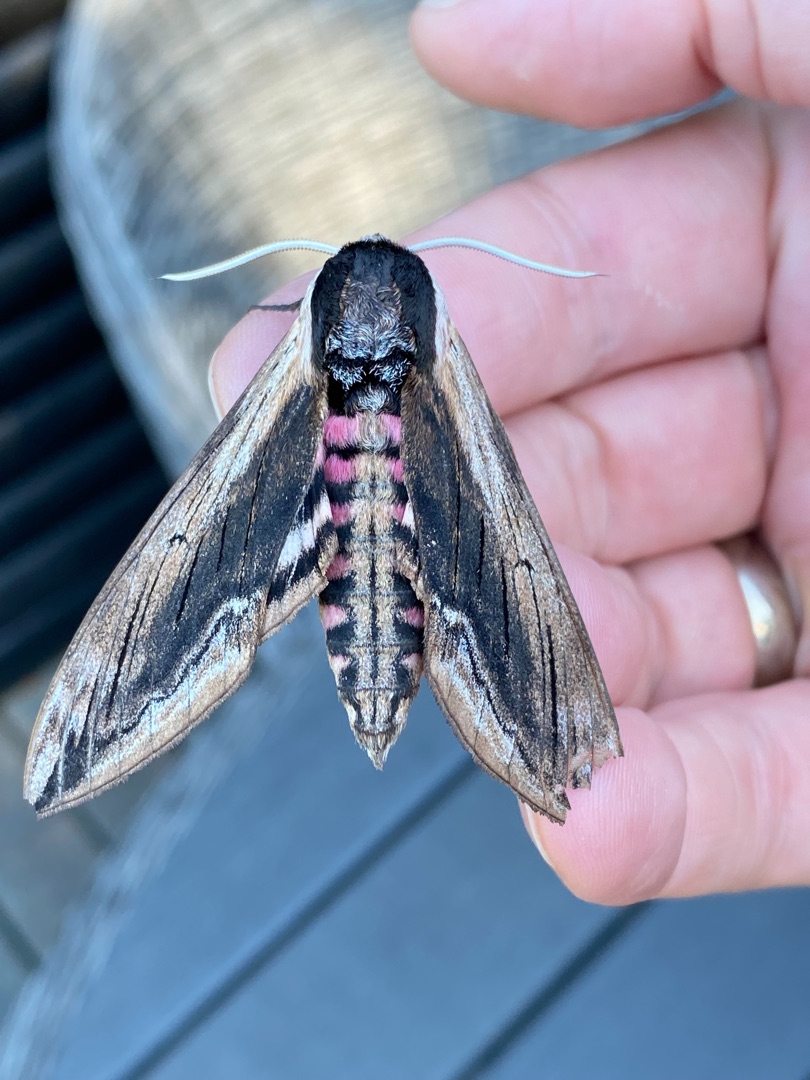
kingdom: Animalia
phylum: Arthropoda
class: Insecta
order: Lepidoptera
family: Sphingidae
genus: Sphinx
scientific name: Sphinx ligustri
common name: Ligustersværmer
